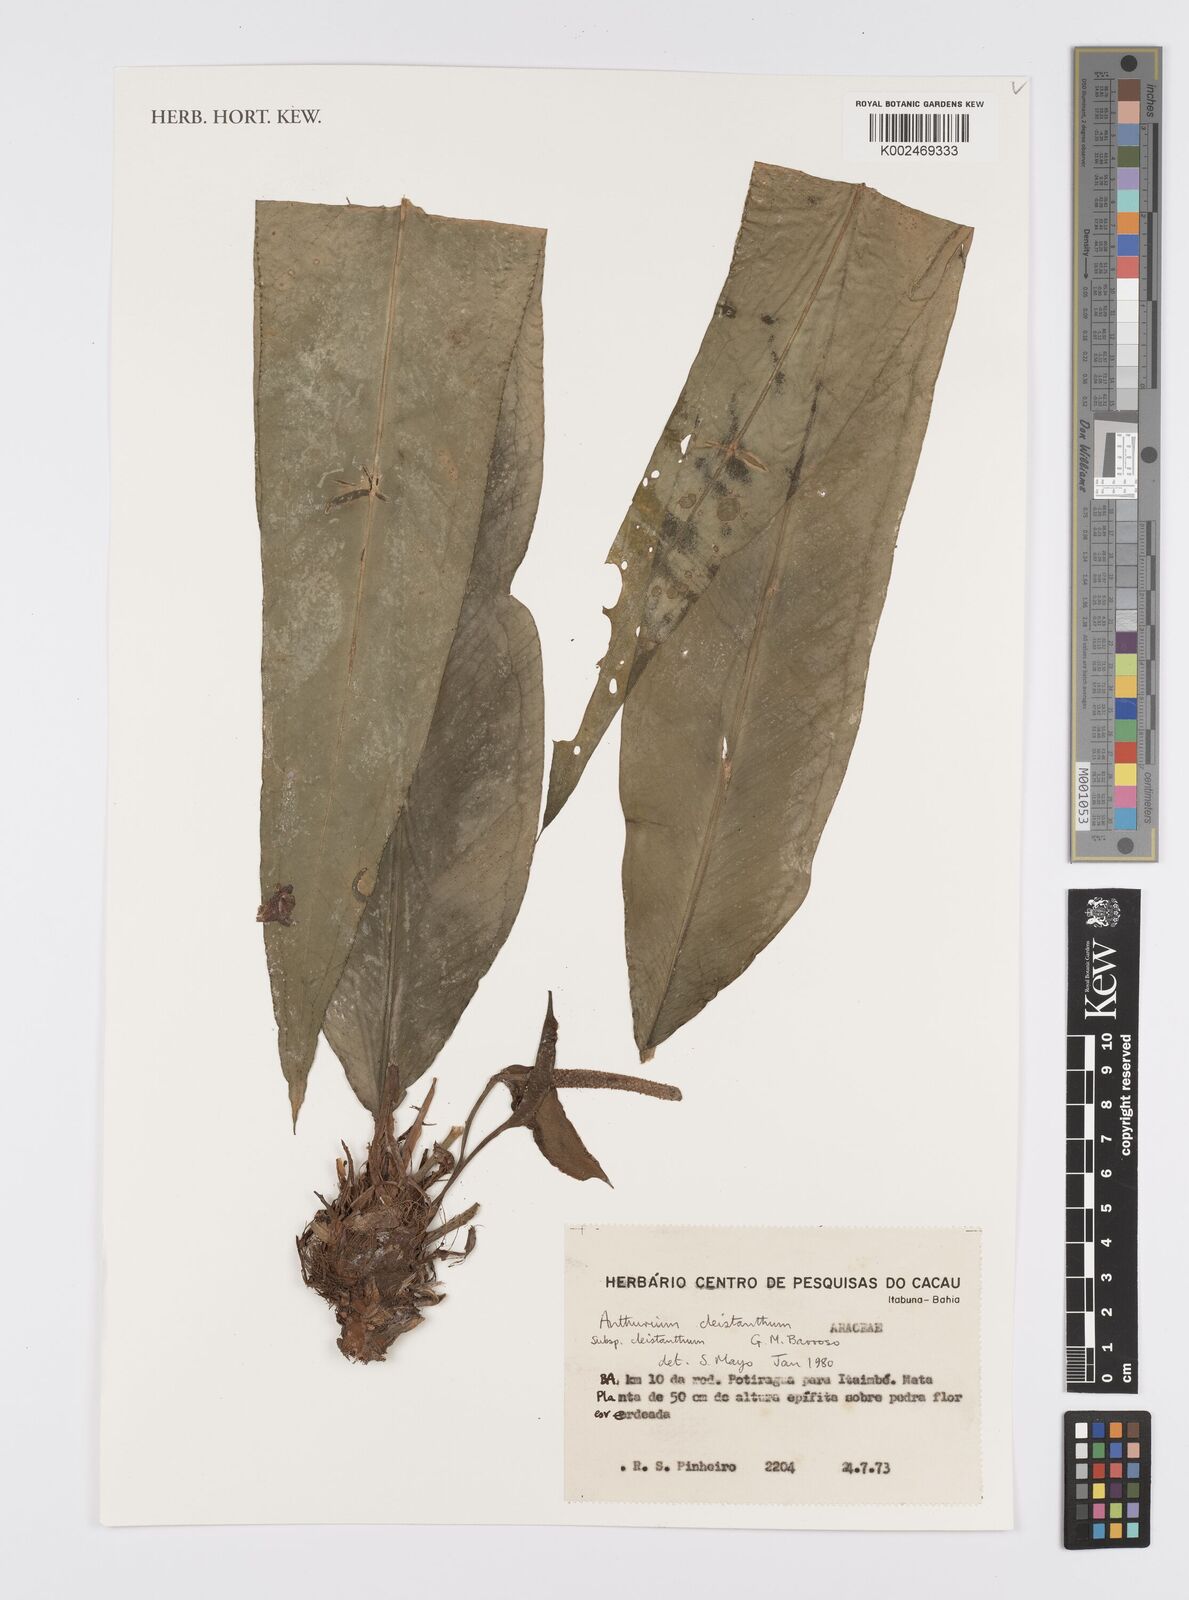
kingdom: Plantae
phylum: Tracheophyta
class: Liliopsida
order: Alismatales
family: Araceae
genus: Anthurium
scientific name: Anthurium cleistanthum
